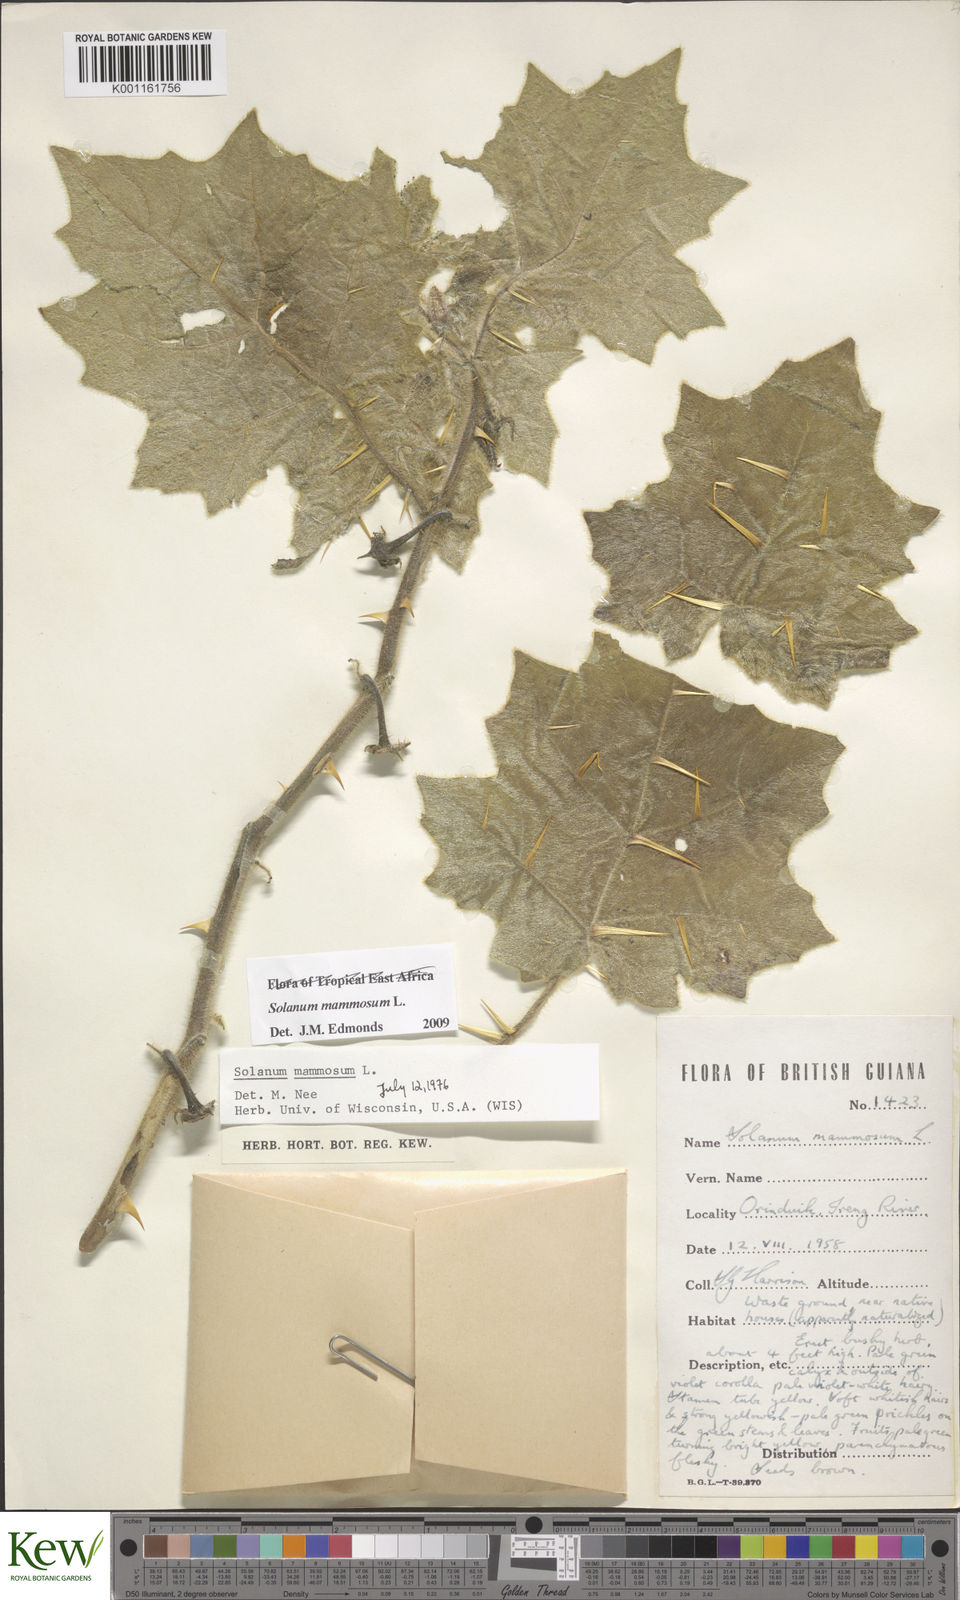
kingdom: Plantae
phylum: Tracheophyta
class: Magnoliopsida
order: Solanales
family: Solanaceae
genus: Solanum
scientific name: Solanum mammosum
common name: Nipple fruit
